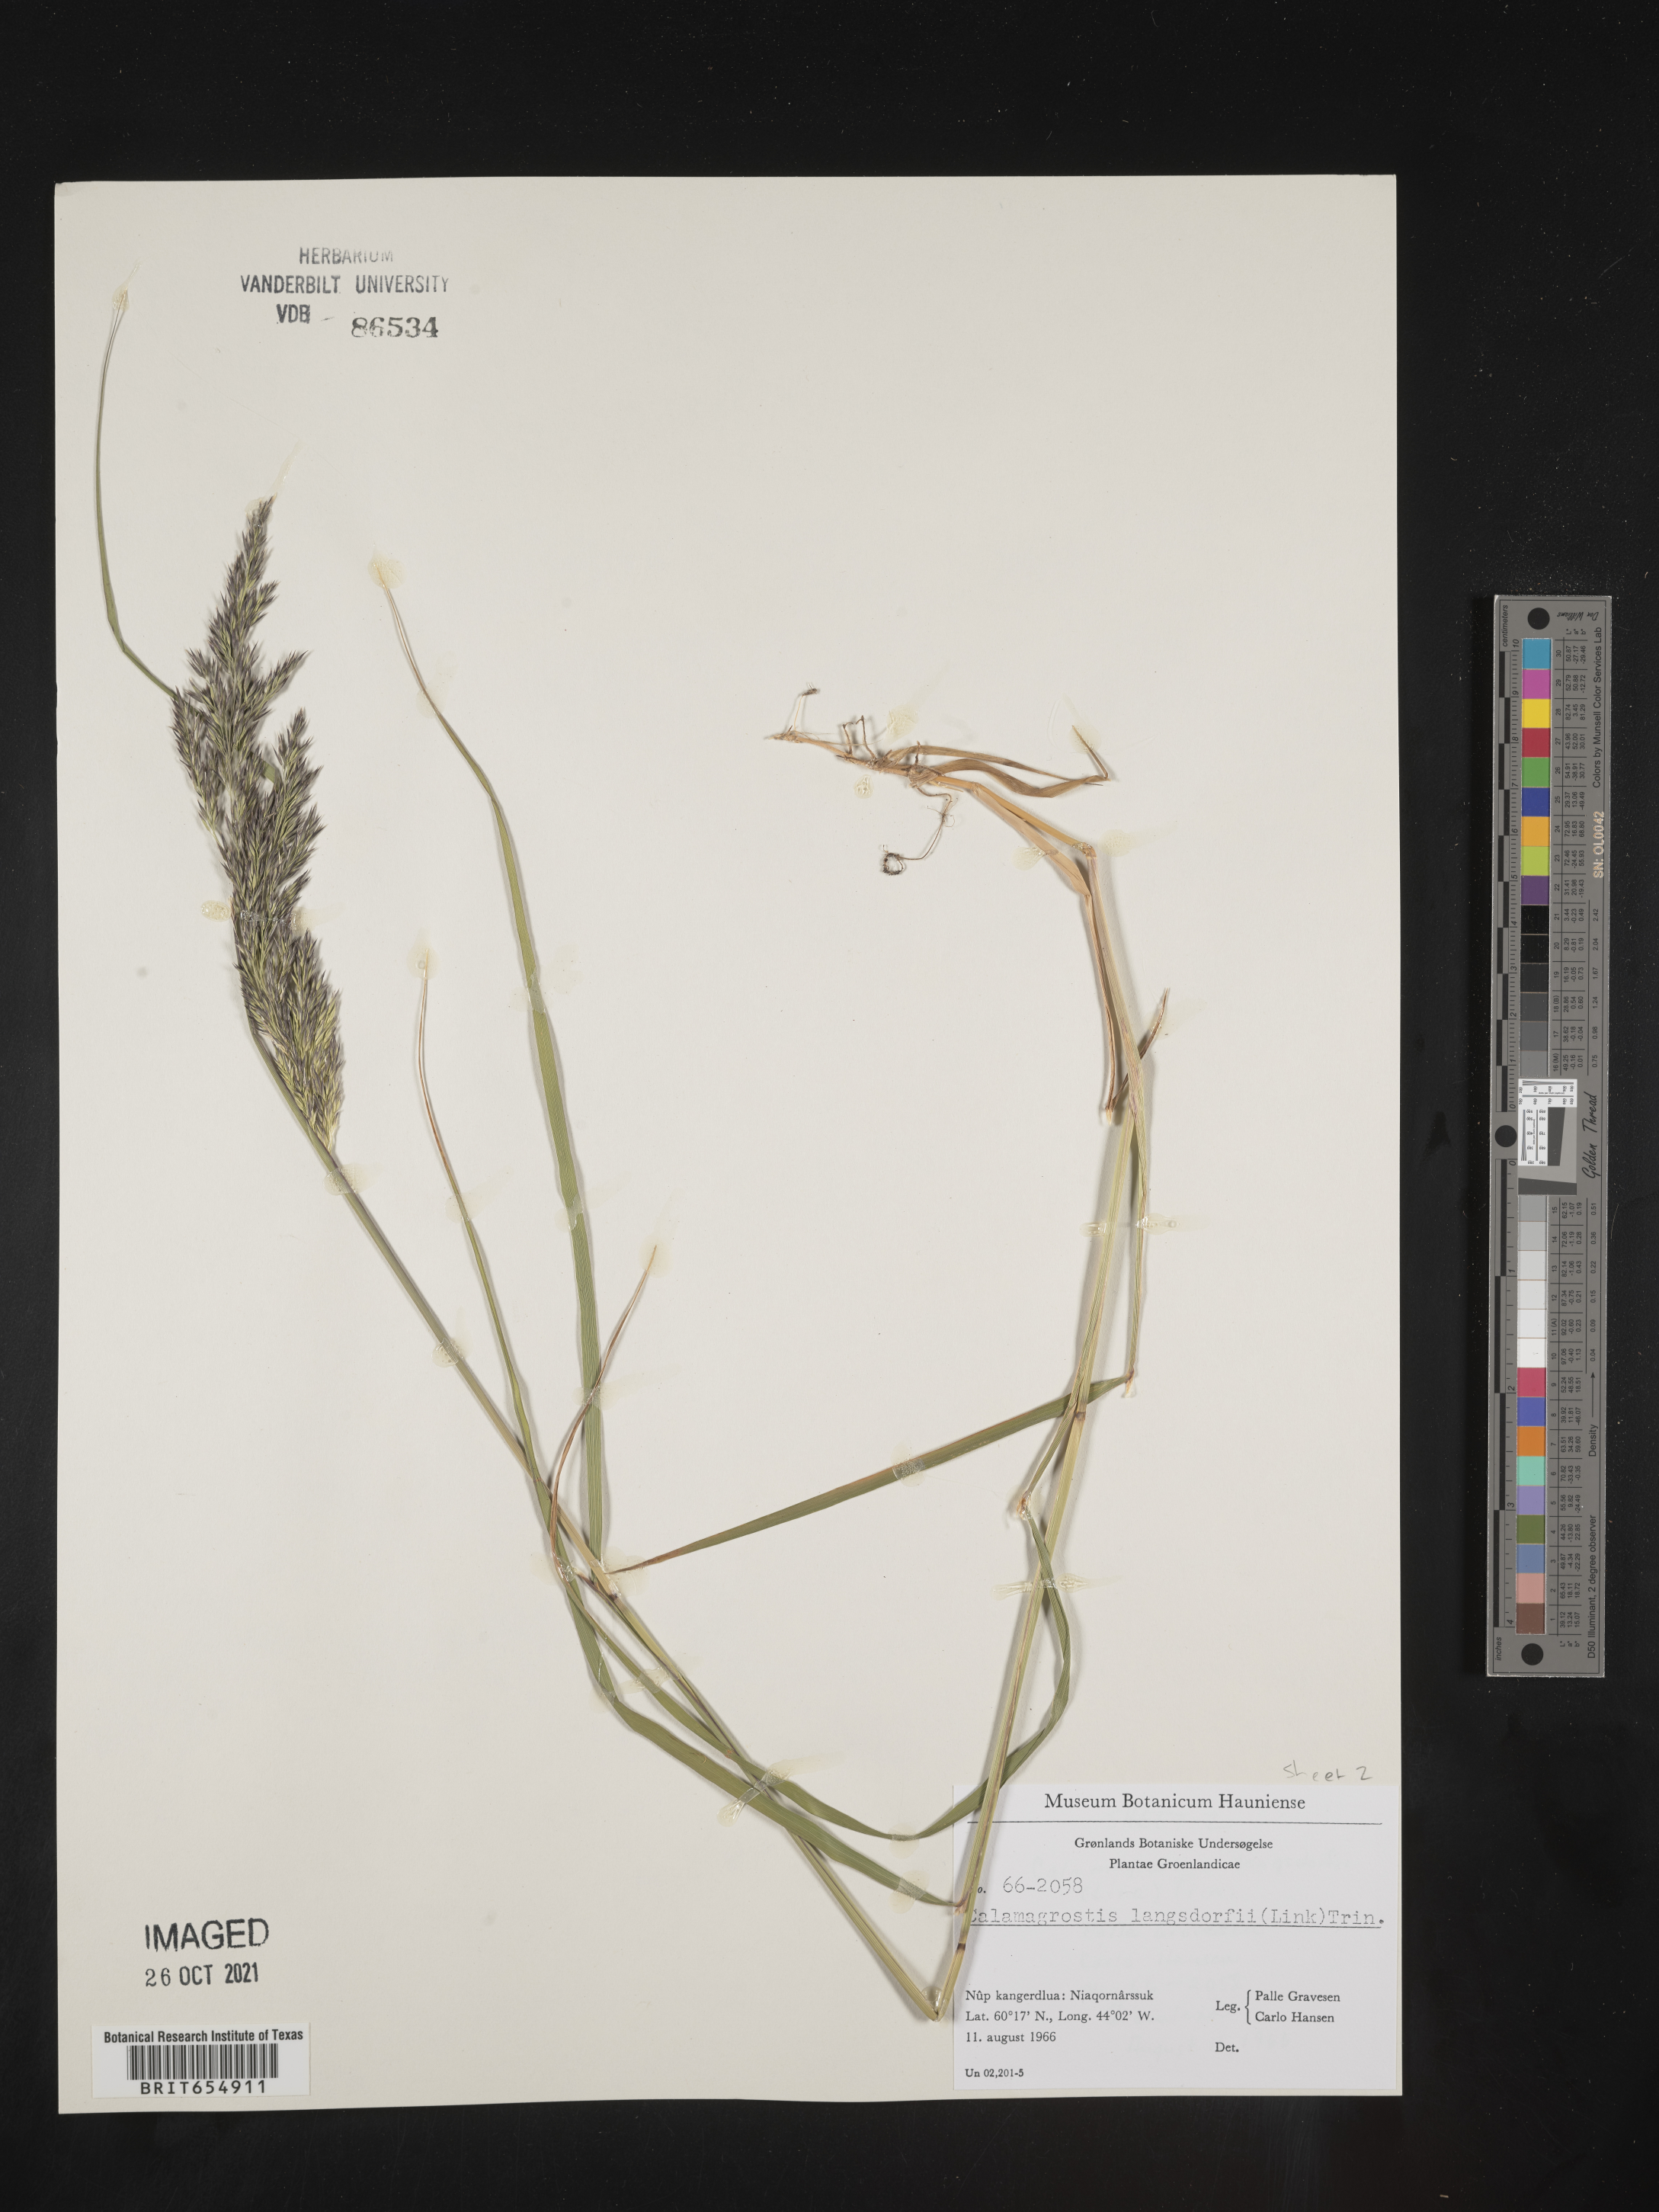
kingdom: Plantae
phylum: Tracheophyta
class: Liliopsida
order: Poales
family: Poaceae
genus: Calamagrostis
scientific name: Calamagrostis
